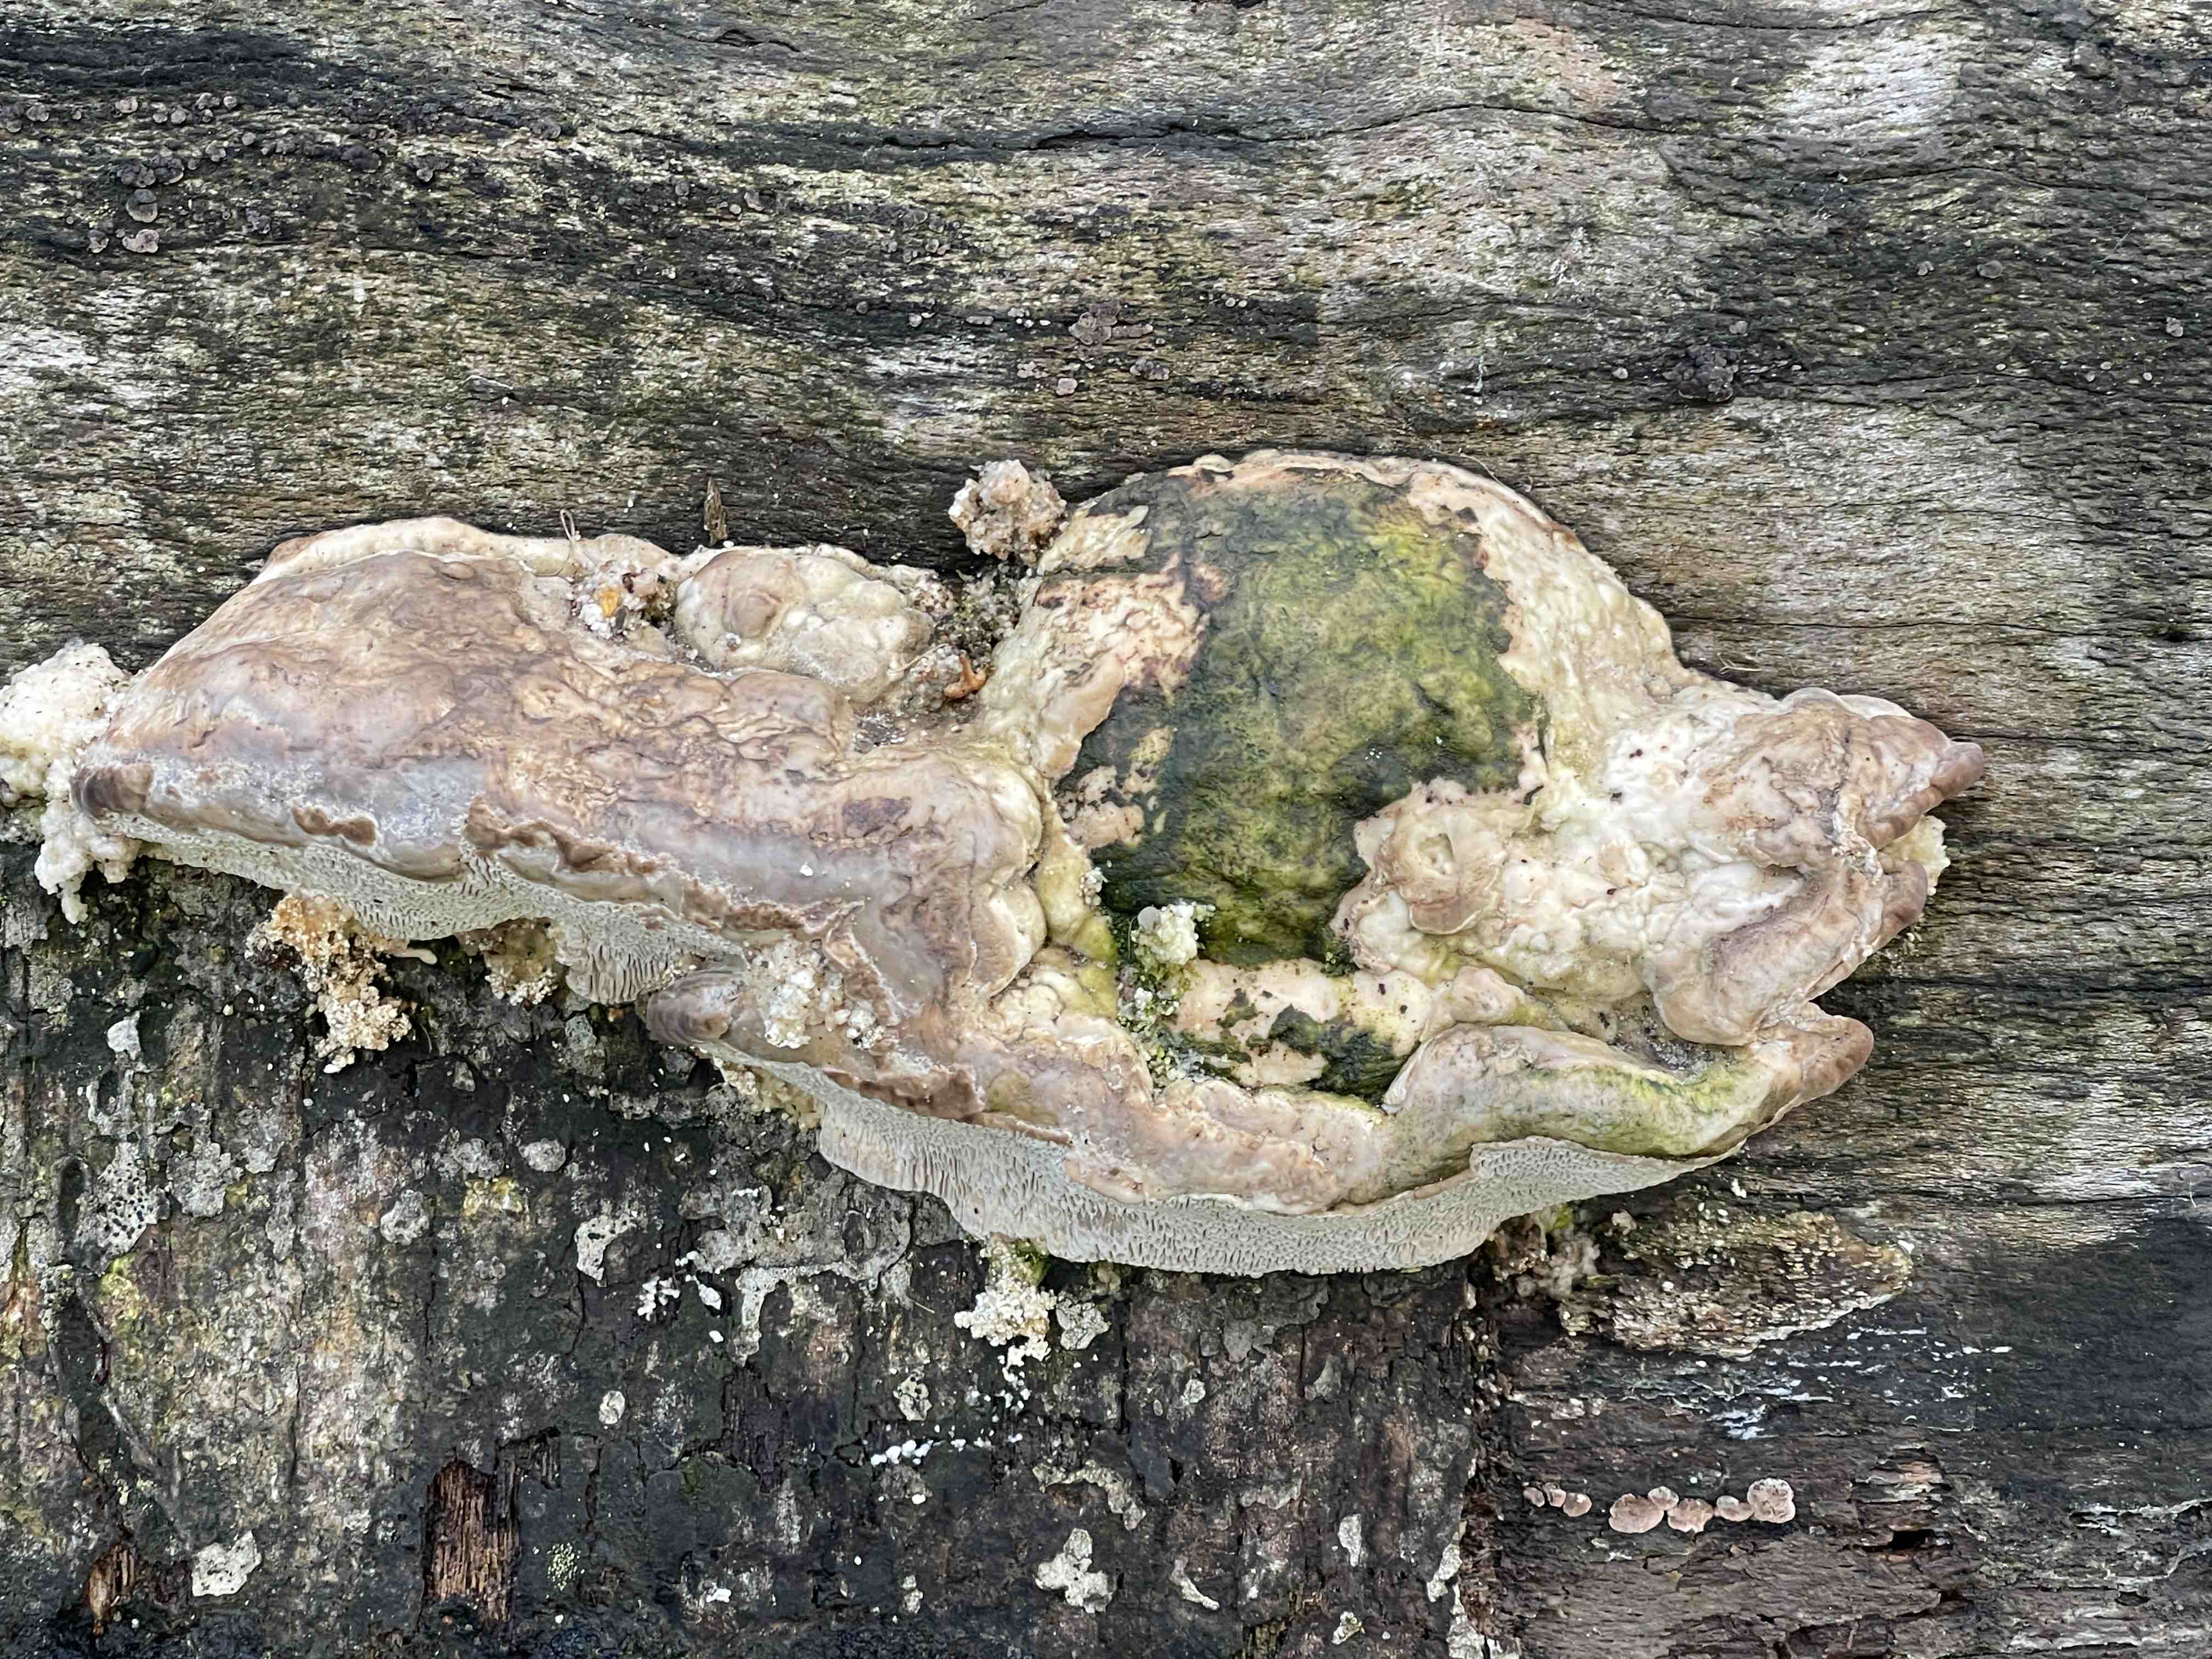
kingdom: Fungi
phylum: Basidiomycota
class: Agaricomycetes
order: Polyporales
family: Polyporaceae
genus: Fomes
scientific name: Fomes fomentarius
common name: tøndersvamp
